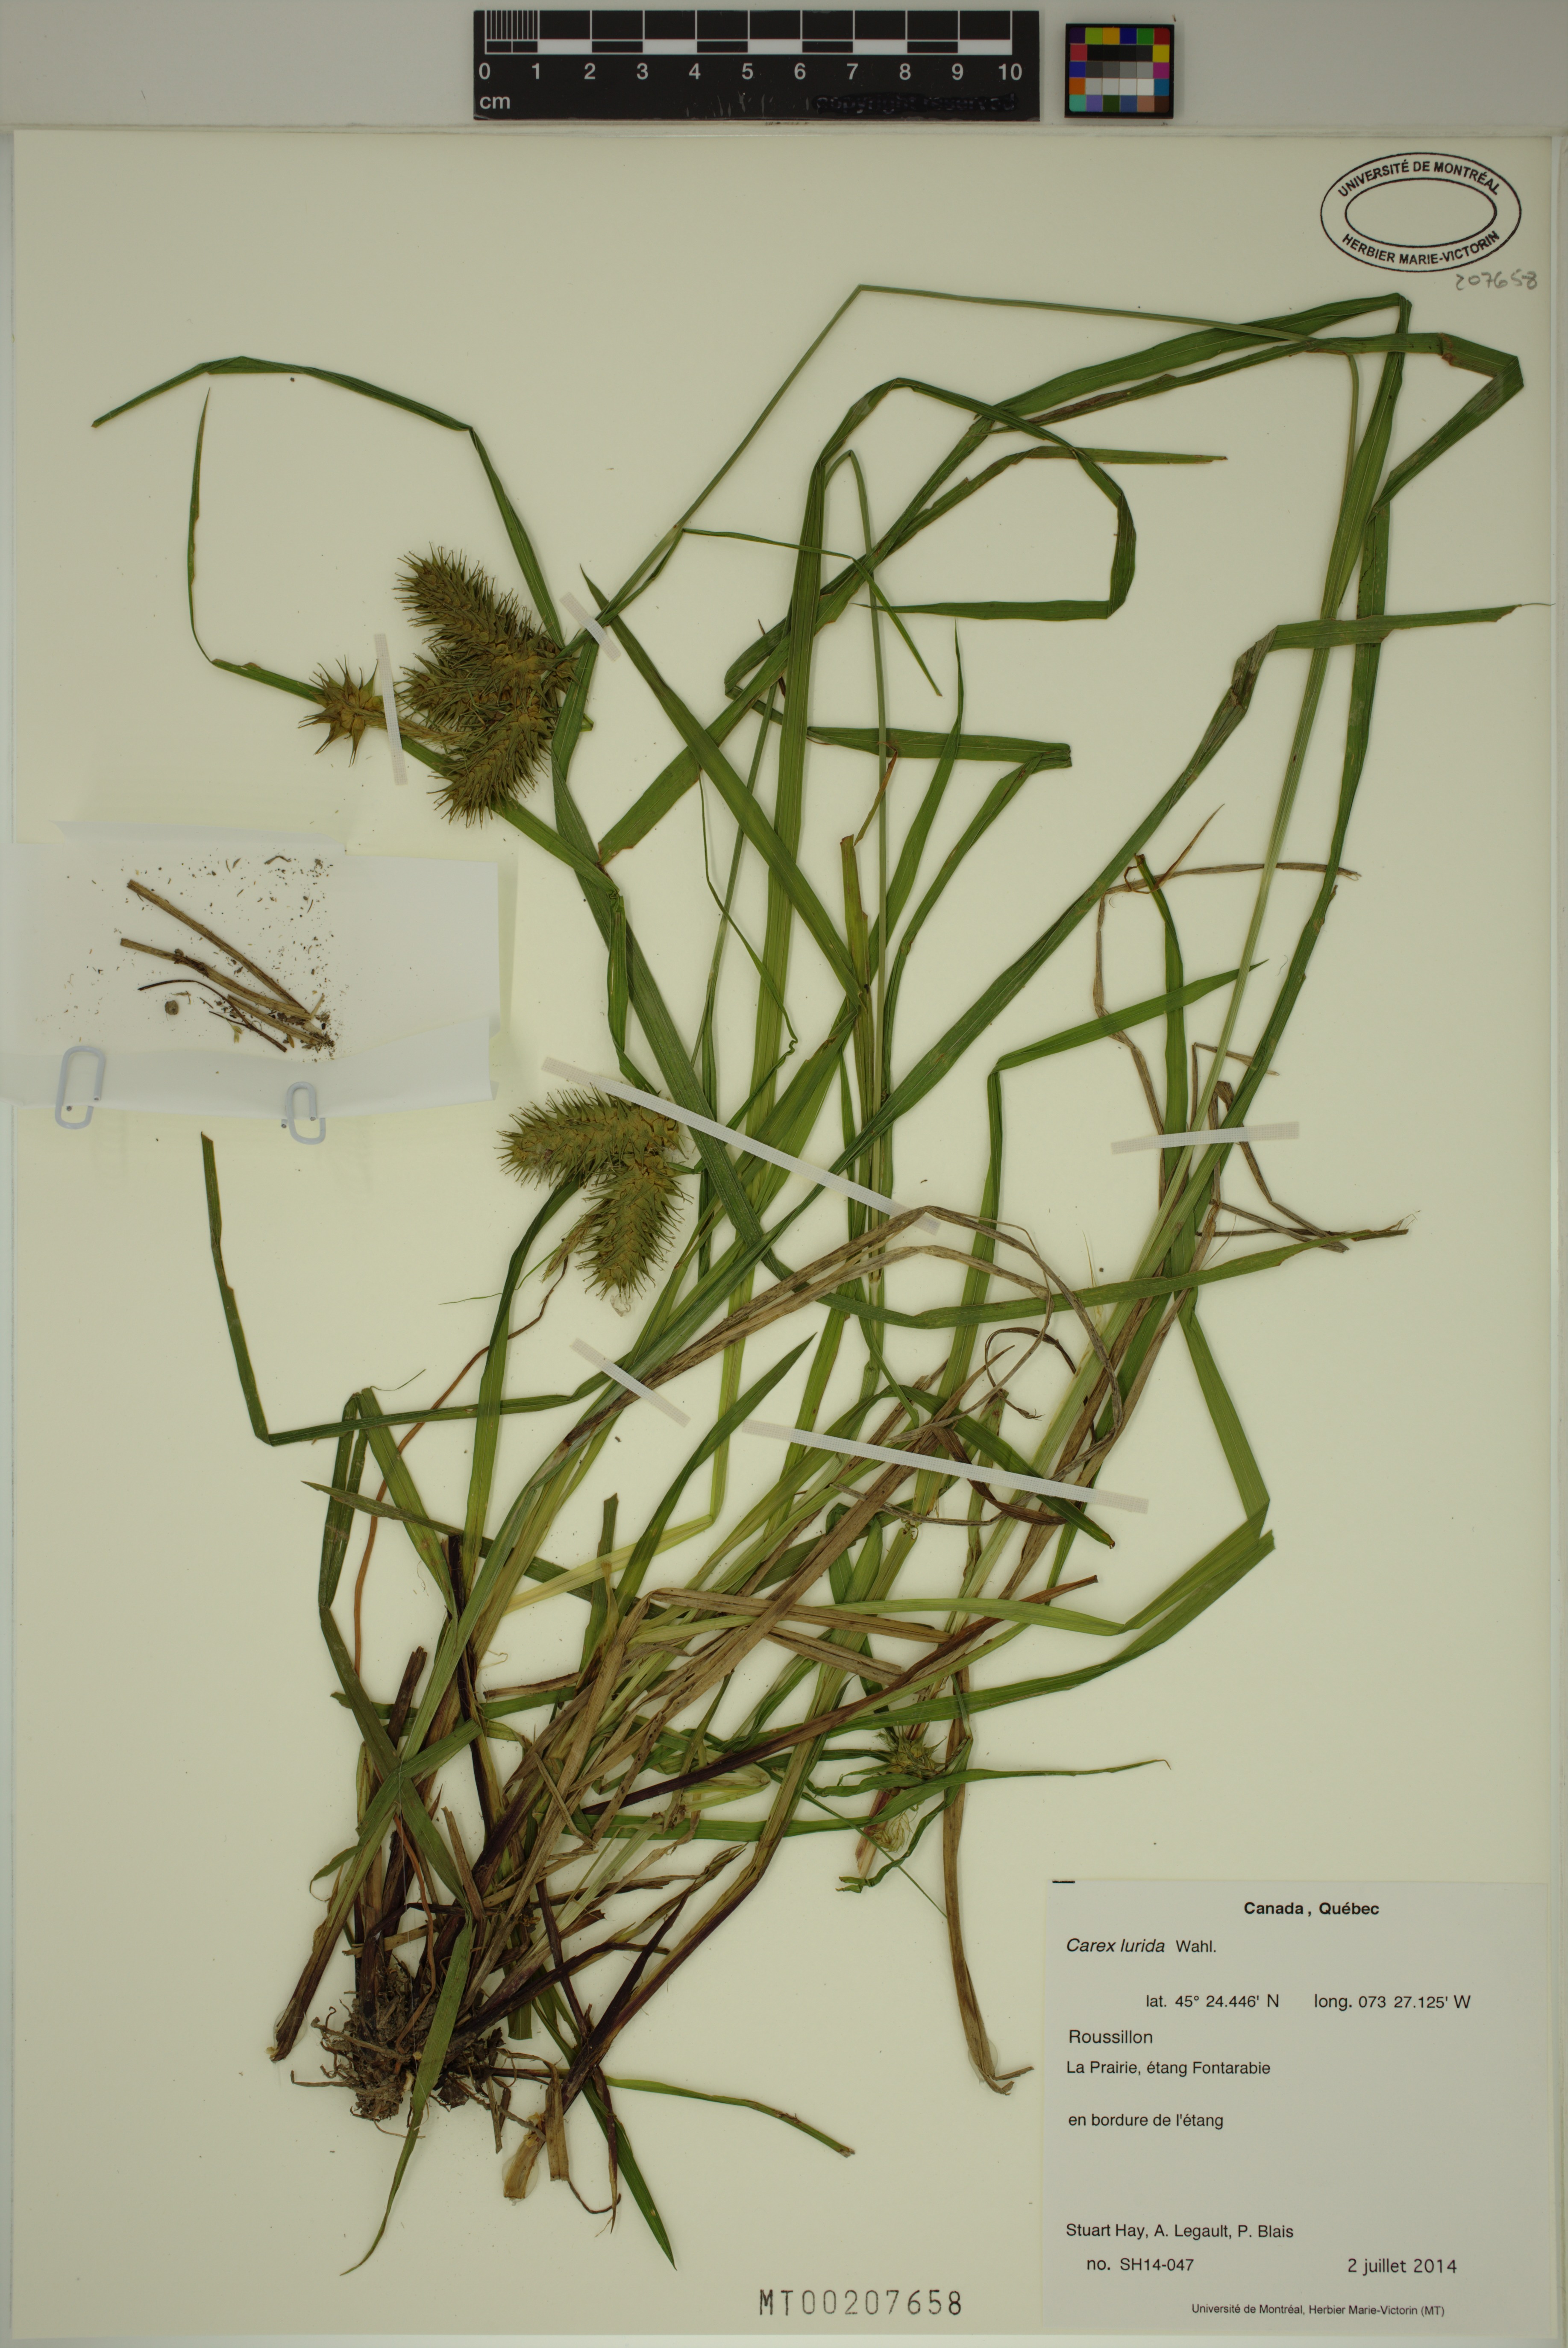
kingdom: Plantae
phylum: Tracheophyta
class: Liliopsida
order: Poales
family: Cyperaceae
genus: Carex
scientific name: Carex lurida
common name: Sallow sedge
